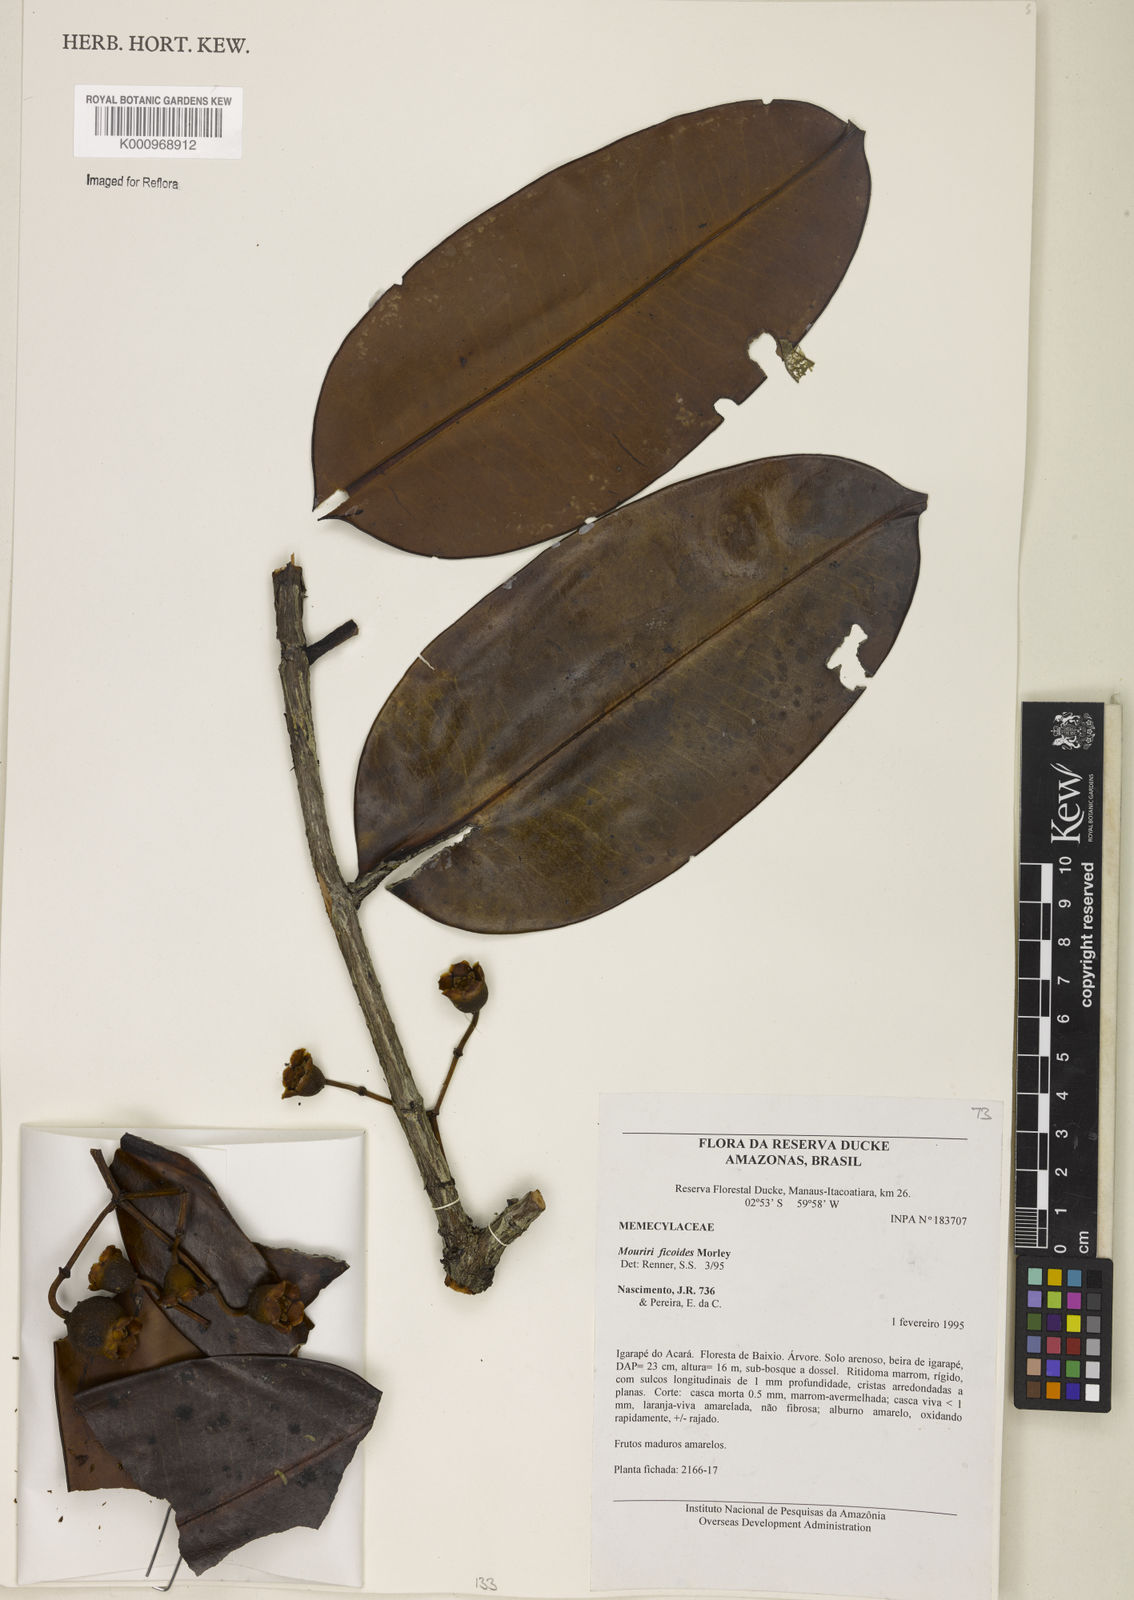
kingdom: Plantae
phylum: Tracheophyta
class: Magnoliopsida
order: Myrtales
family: Melastomataceae
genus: Mouriri
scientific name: Mouriri ficoides
